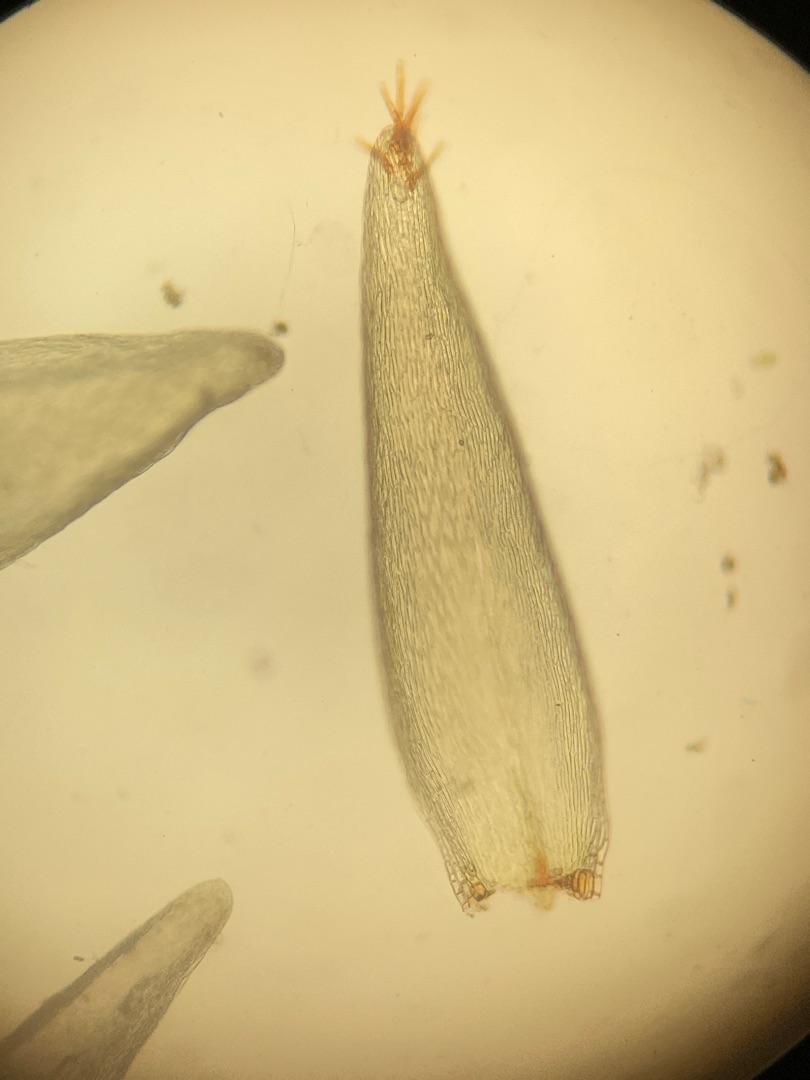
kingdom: Plantae
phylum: Bryophyta
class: Bryopsida
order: Hypnales
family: Calliergonaceae
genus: Straminergon
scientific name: Straminergon stramineum
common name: Tråd-skebladsmos
